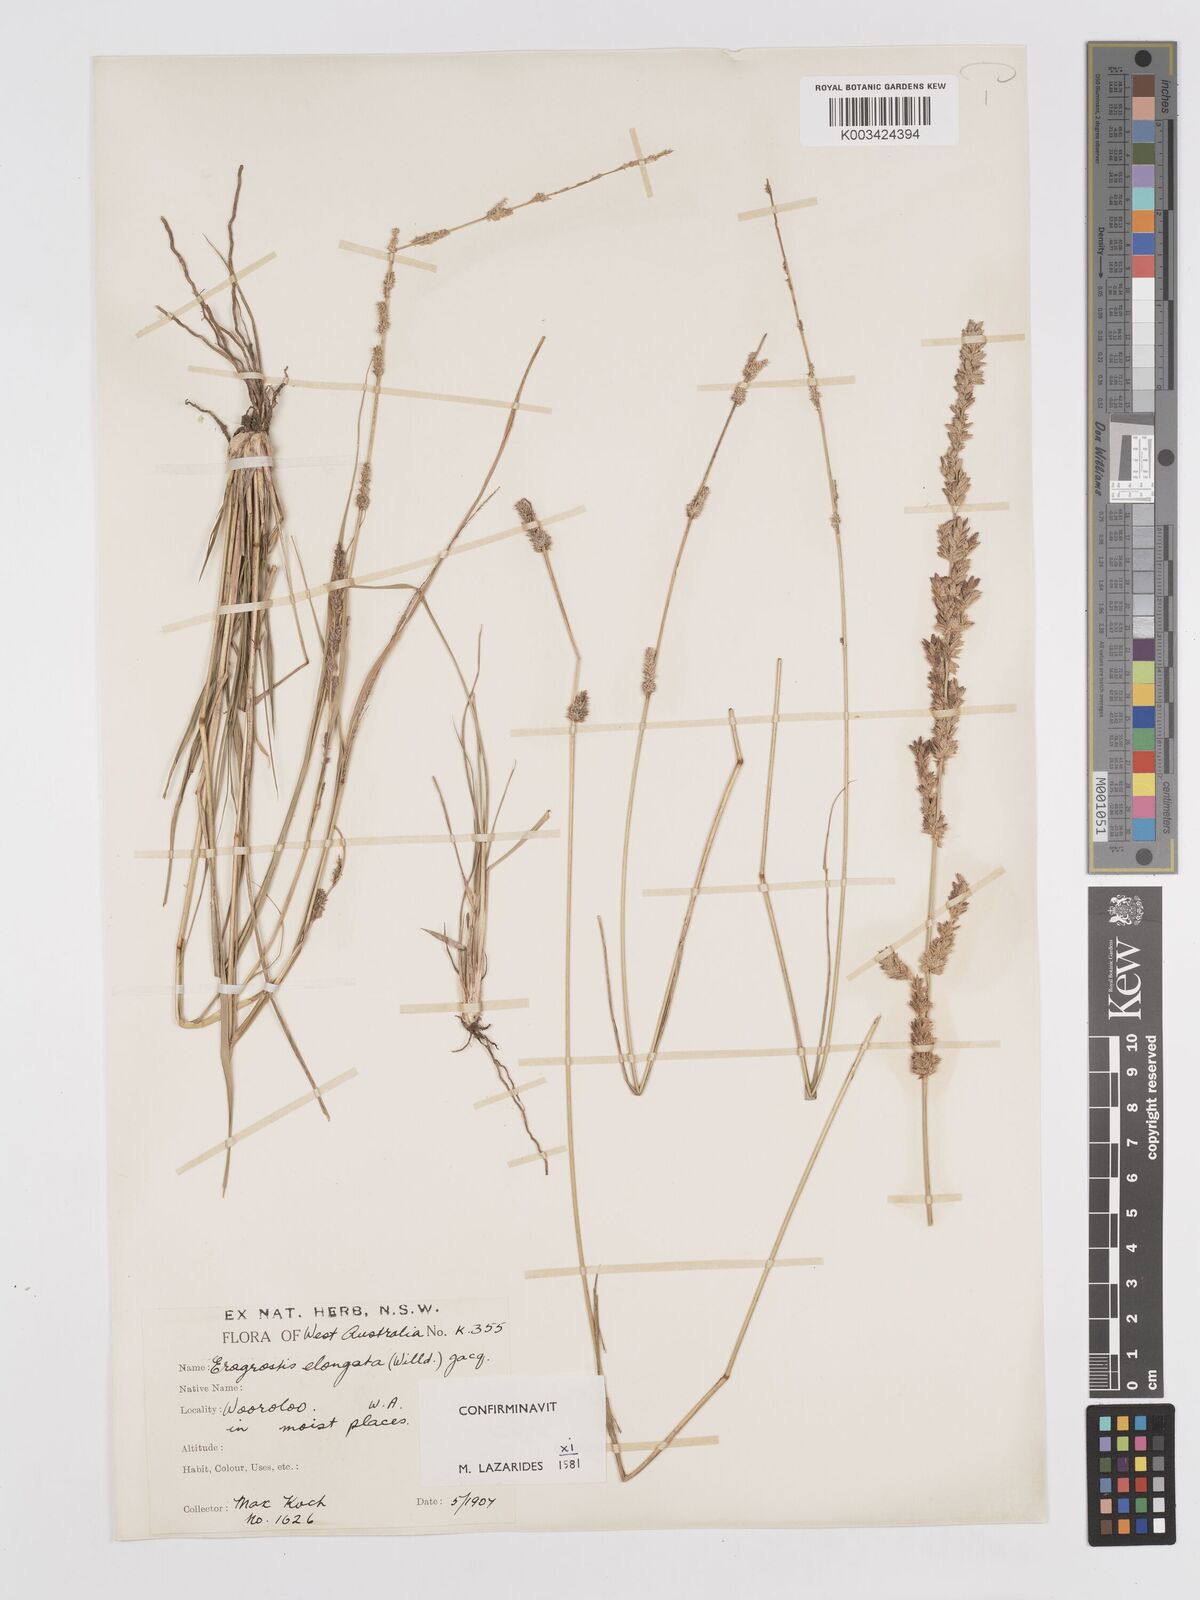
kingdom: Plantae
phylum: Tracheophyta
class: Liliopsida
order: Poales
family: Poaceae
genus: Eragrostis
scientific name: Eragrostis elongata
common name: Long lovegrass
